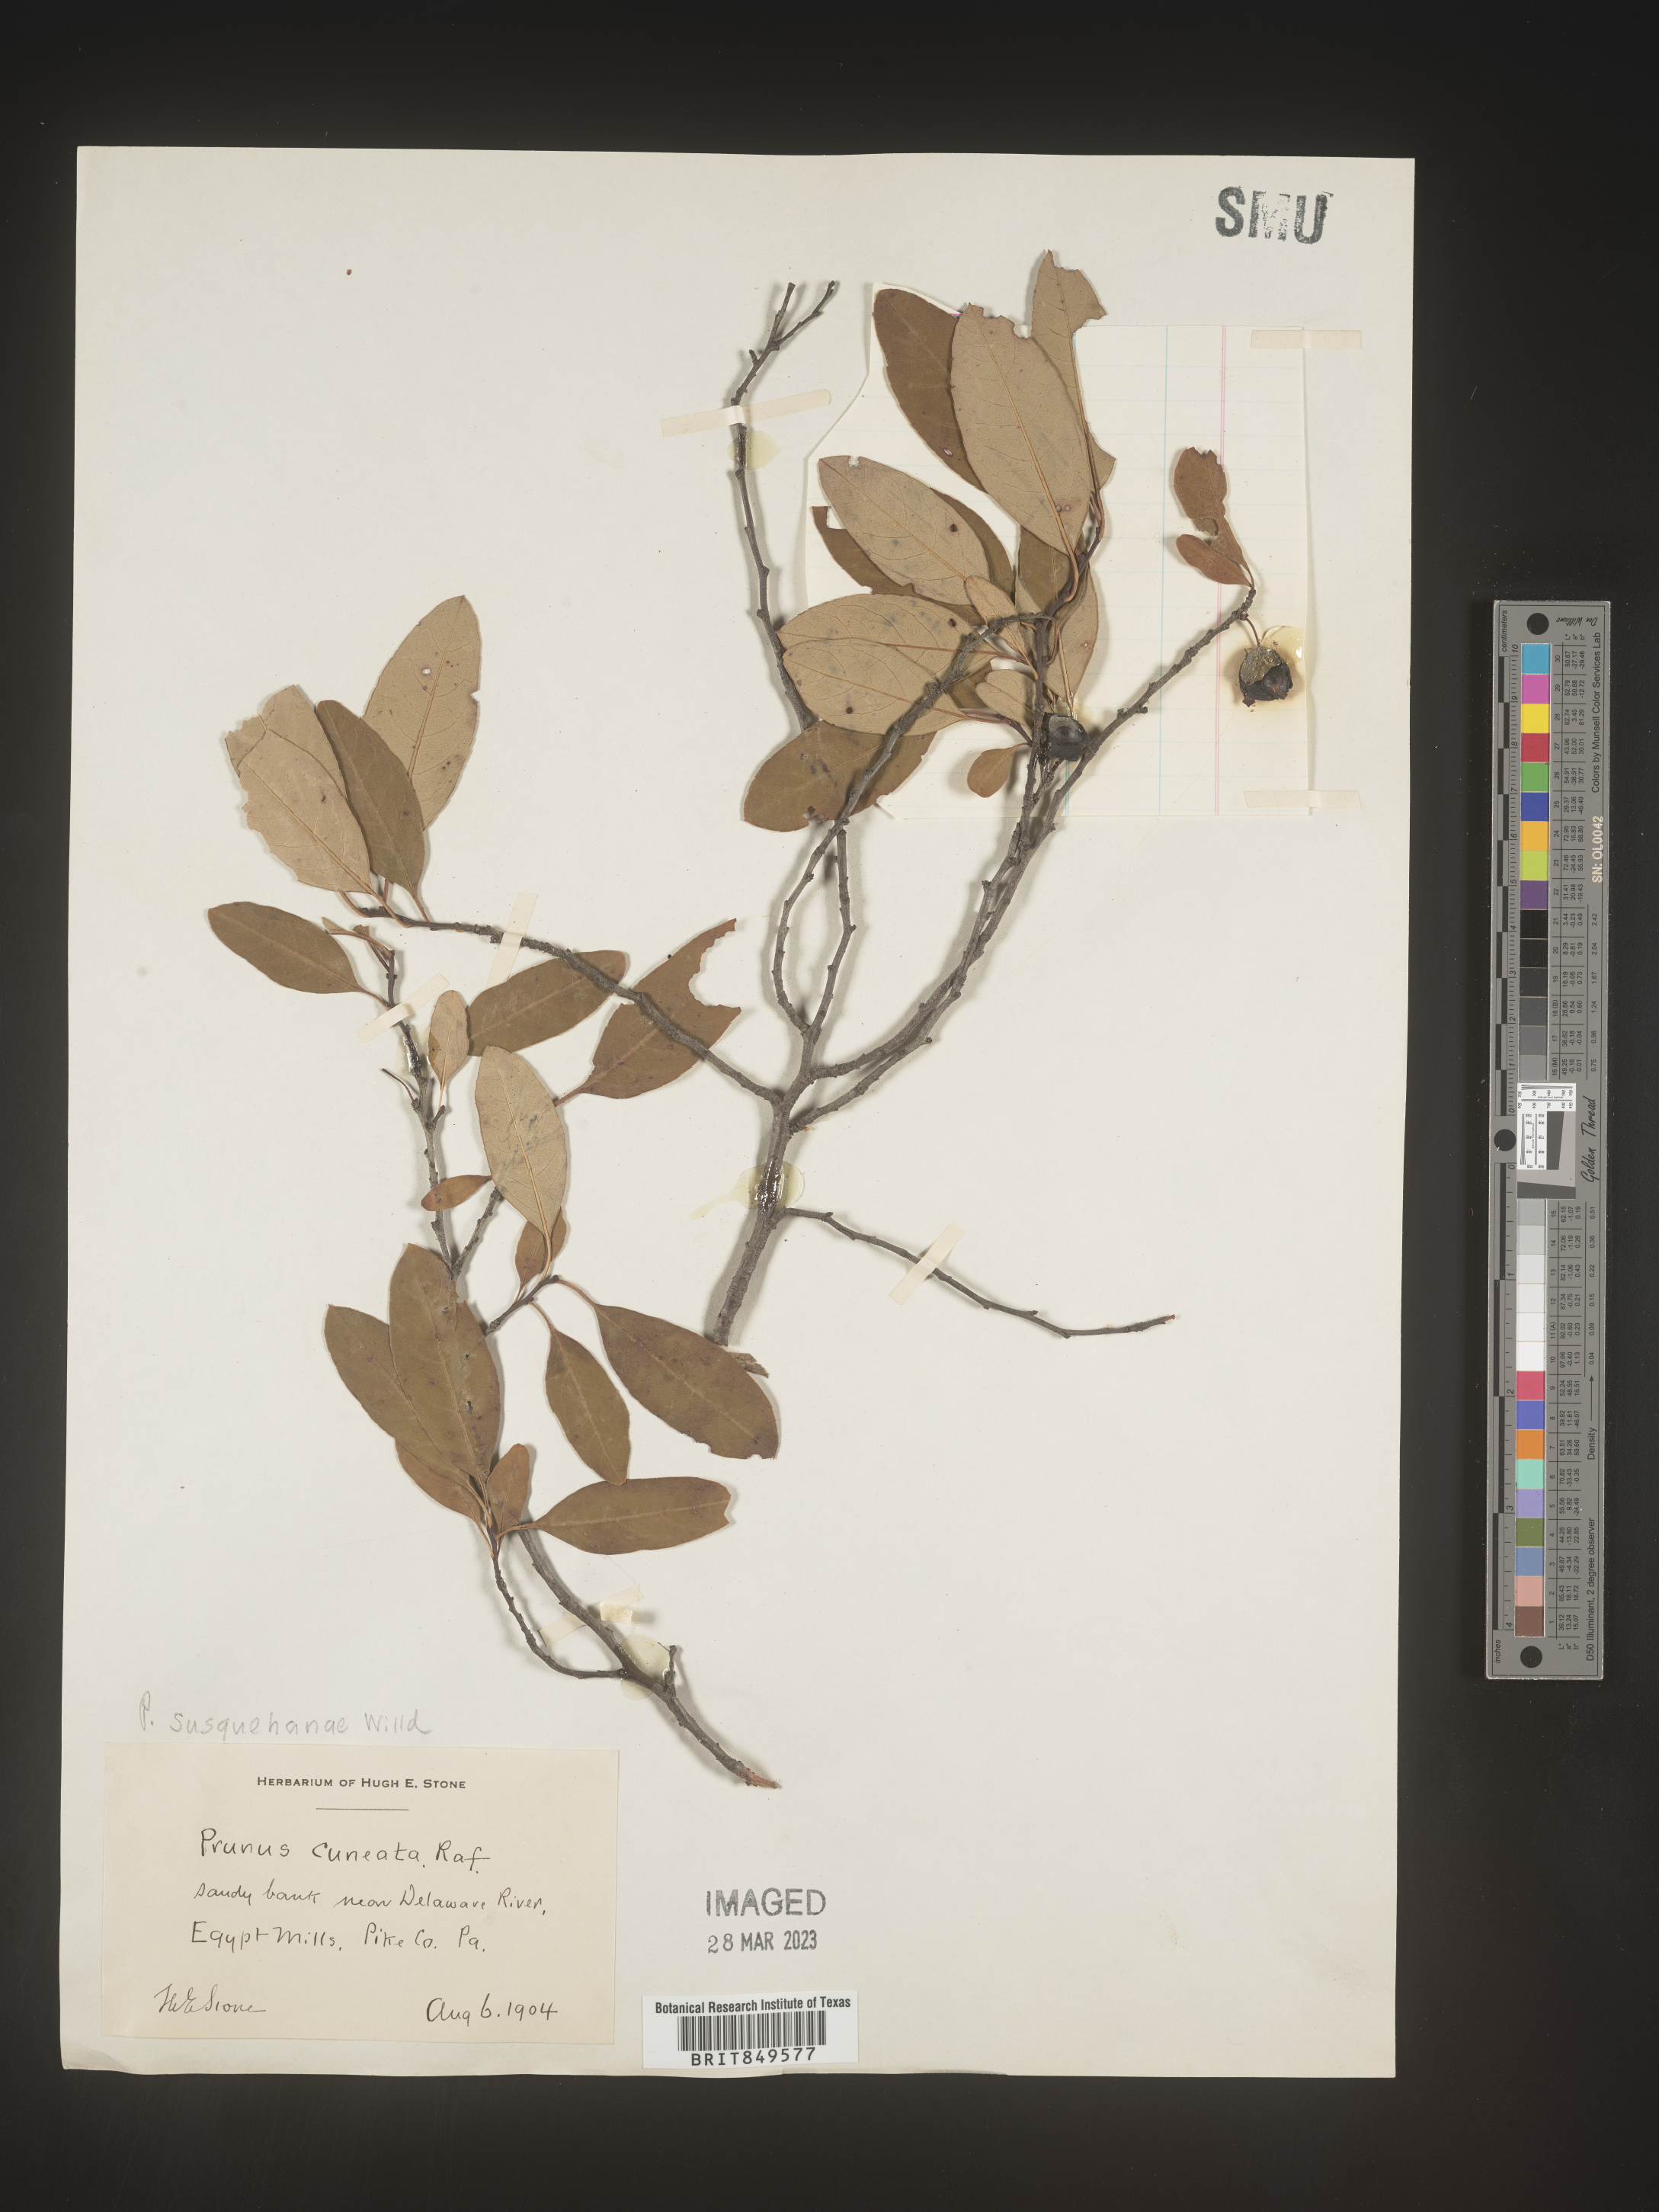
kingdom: Plantae
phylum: Tracheophyta
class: Magnoliopsida
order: Rosales
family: Rosaceae
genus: Prunus
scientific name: Prunus
